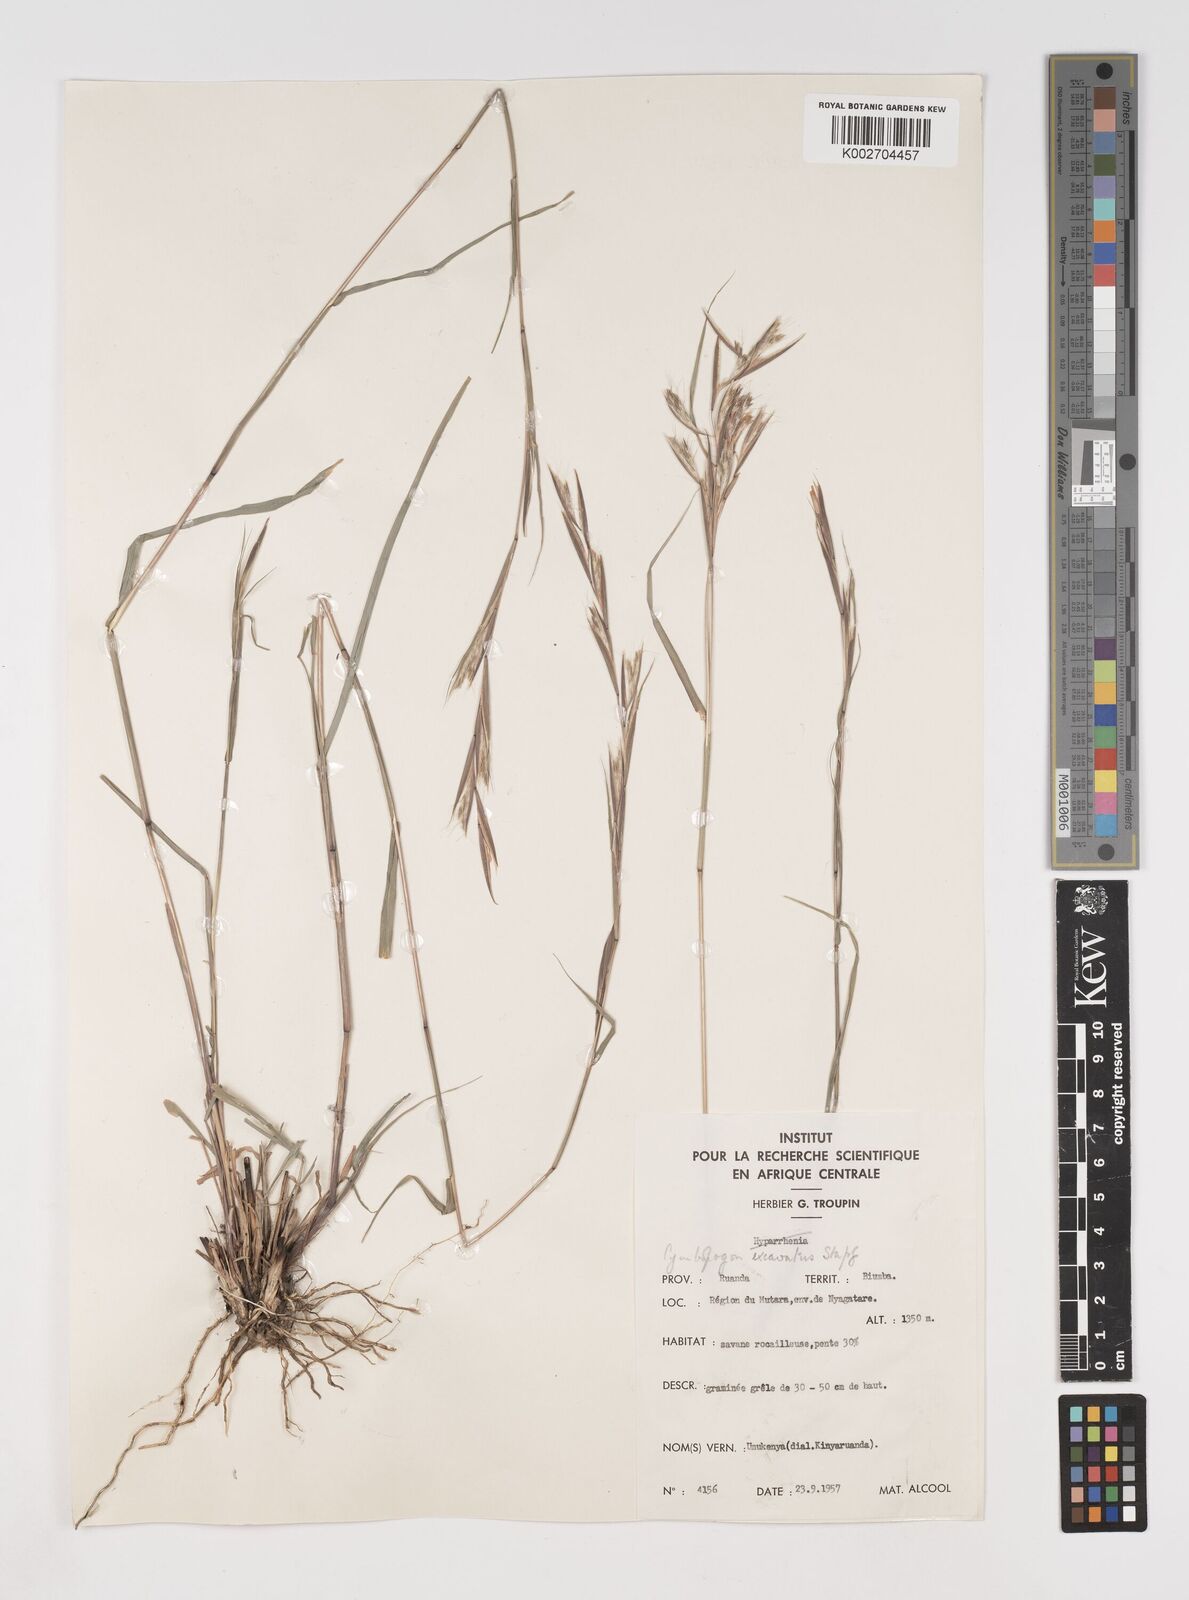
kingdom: Plantae
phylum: Tracheophyta
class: Liliopsida
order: Poales
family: Poaceae
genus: Cymbopogon
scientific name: Cymbopogon caesius
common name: Kachi grass
